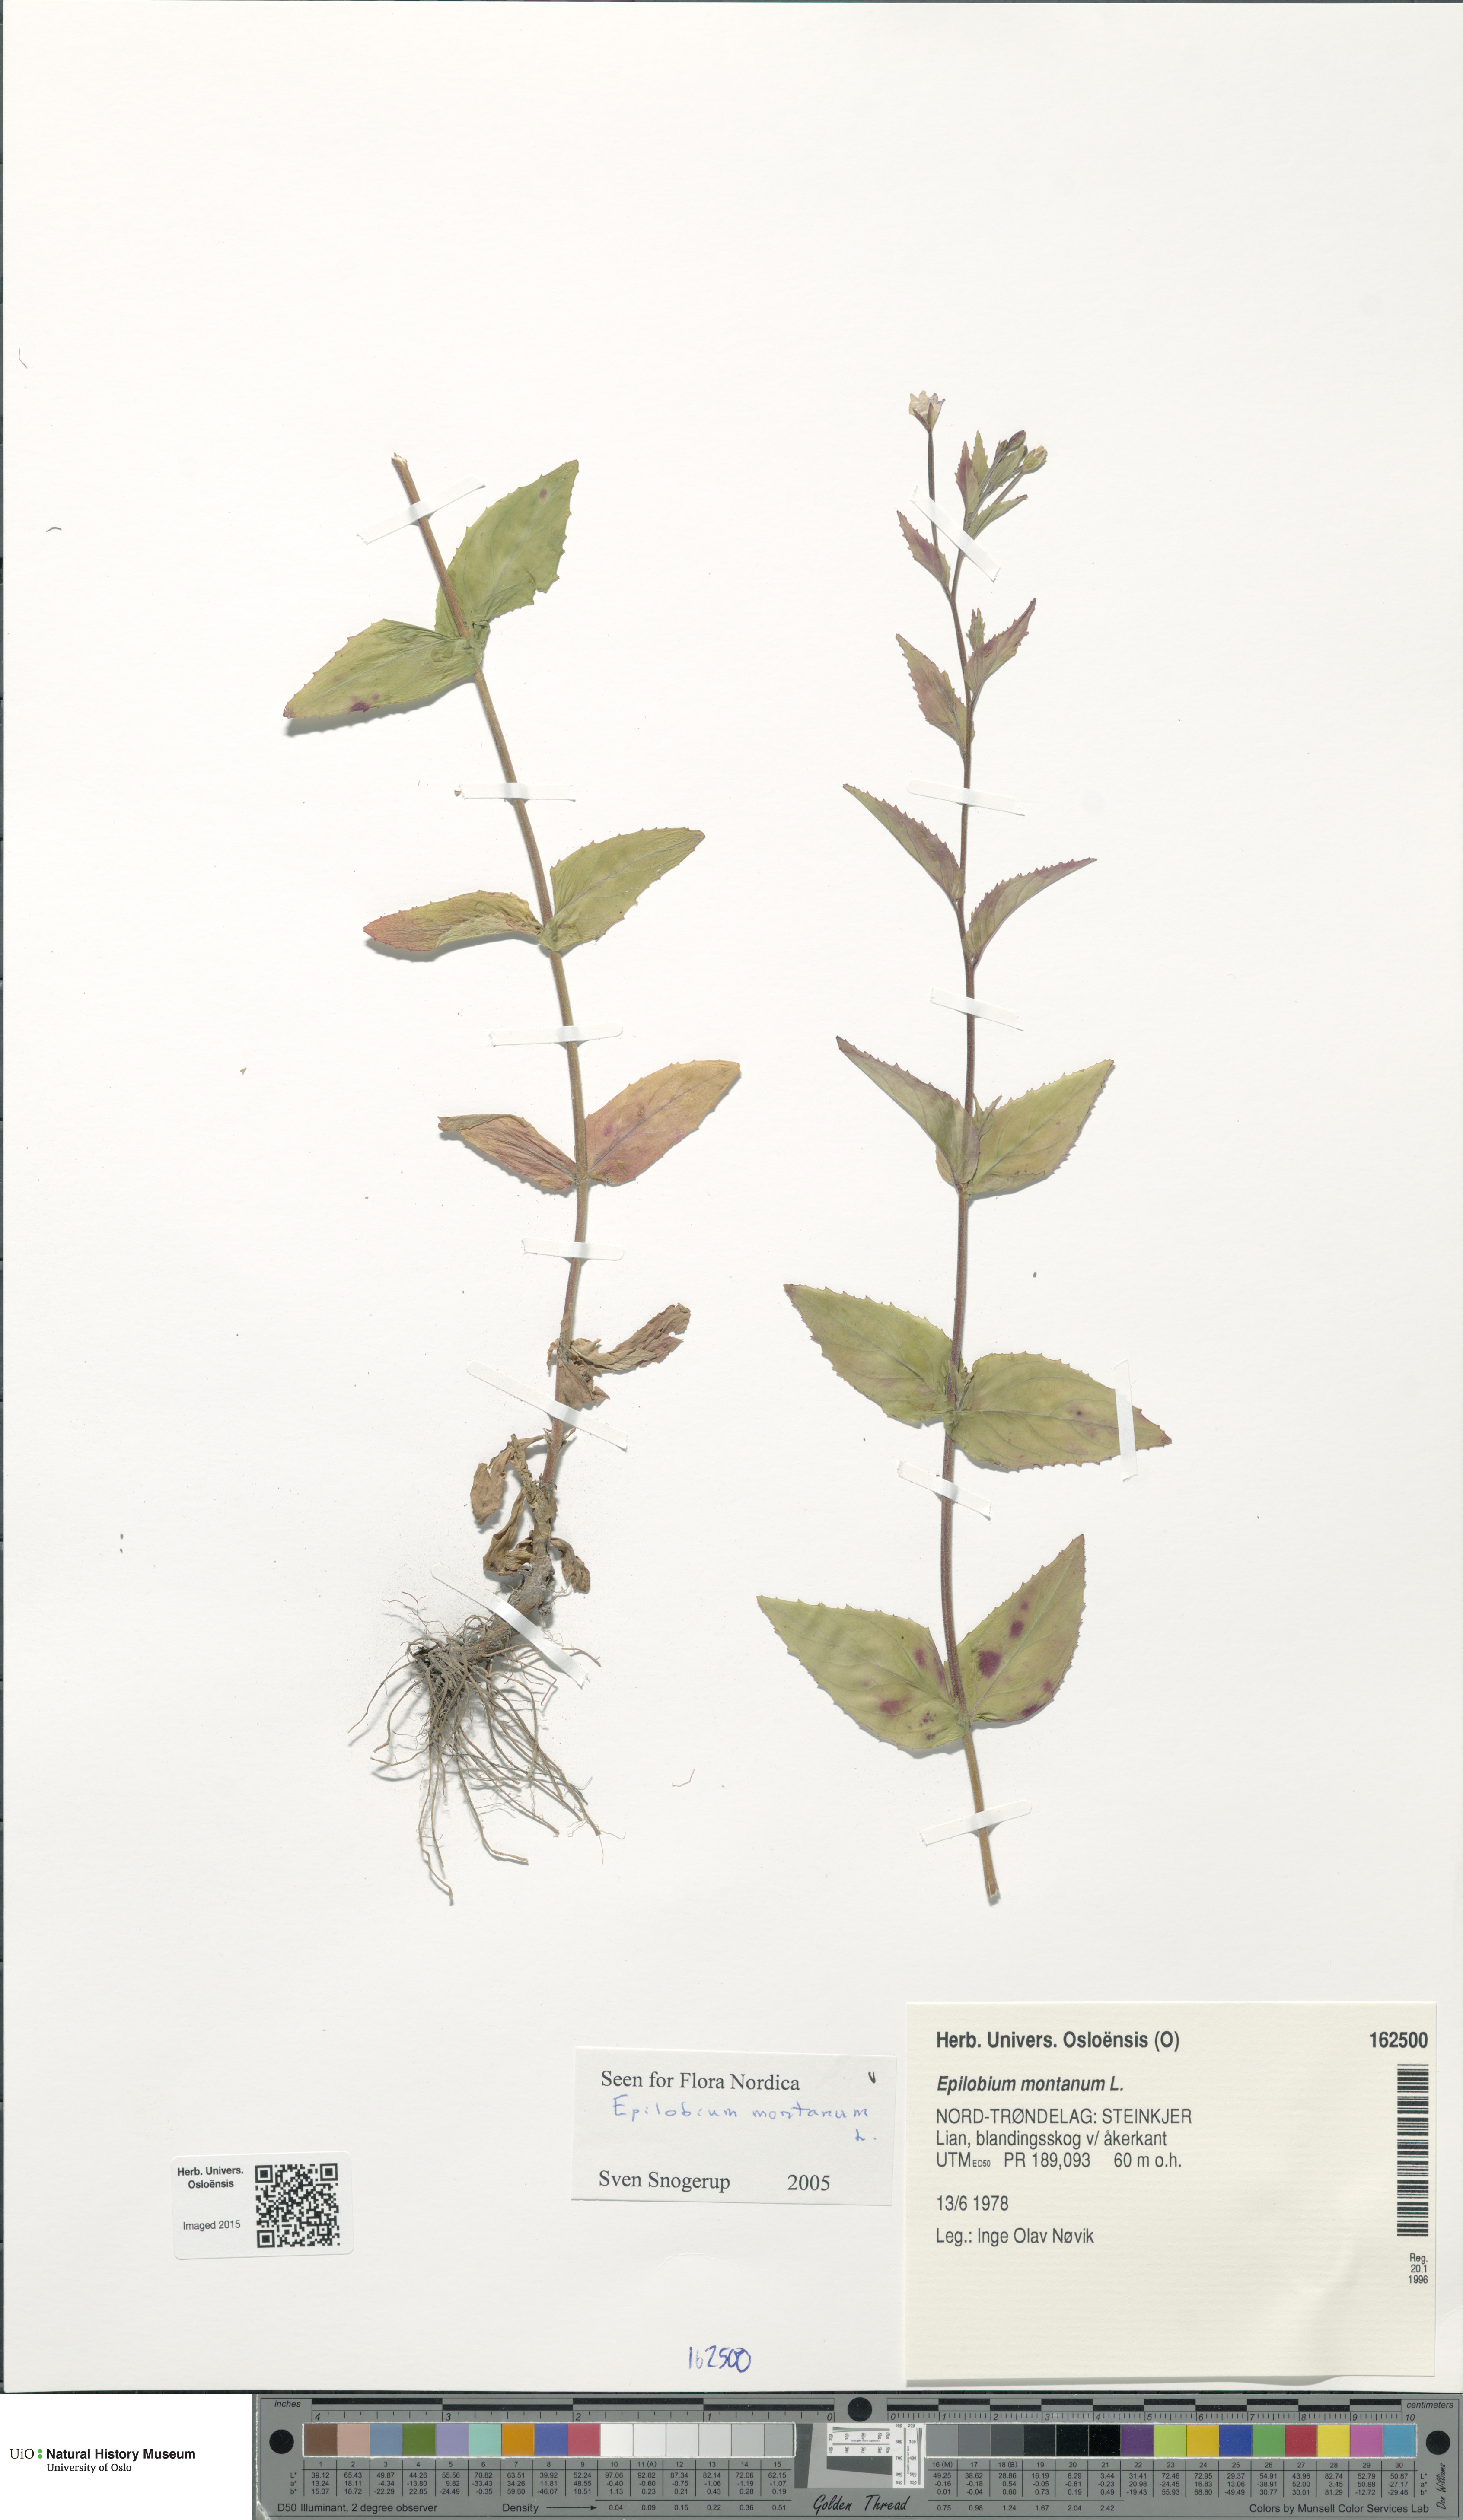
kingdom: Plantae
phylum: Tracheophyta
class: Magnoliopsida
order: Myrtales
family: Onagraceae
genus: Epilobium
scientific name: Epilobium montanum
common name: Broad-leaved willowherb
